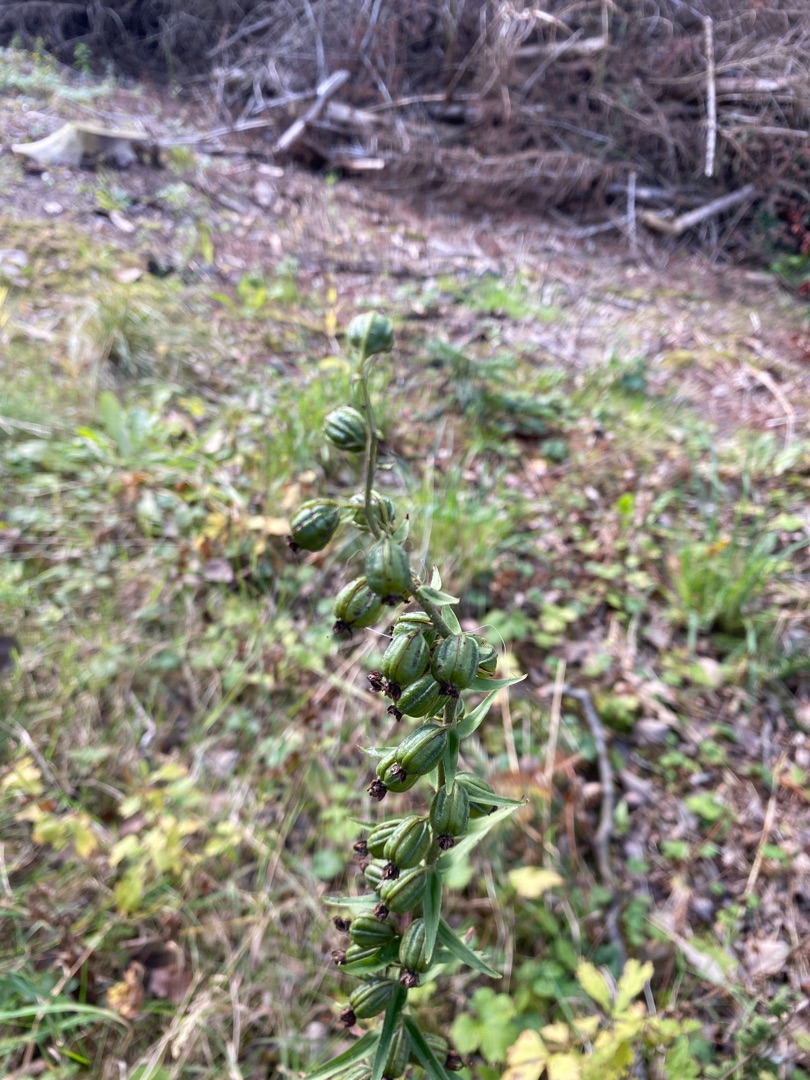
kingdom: Plantae
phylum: Tracheophyta
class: Liliopsida
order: Asparagales
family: Orchidaceae
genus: Epipactis
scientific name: Epipactis helleborine
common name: Skov-hullæbe
